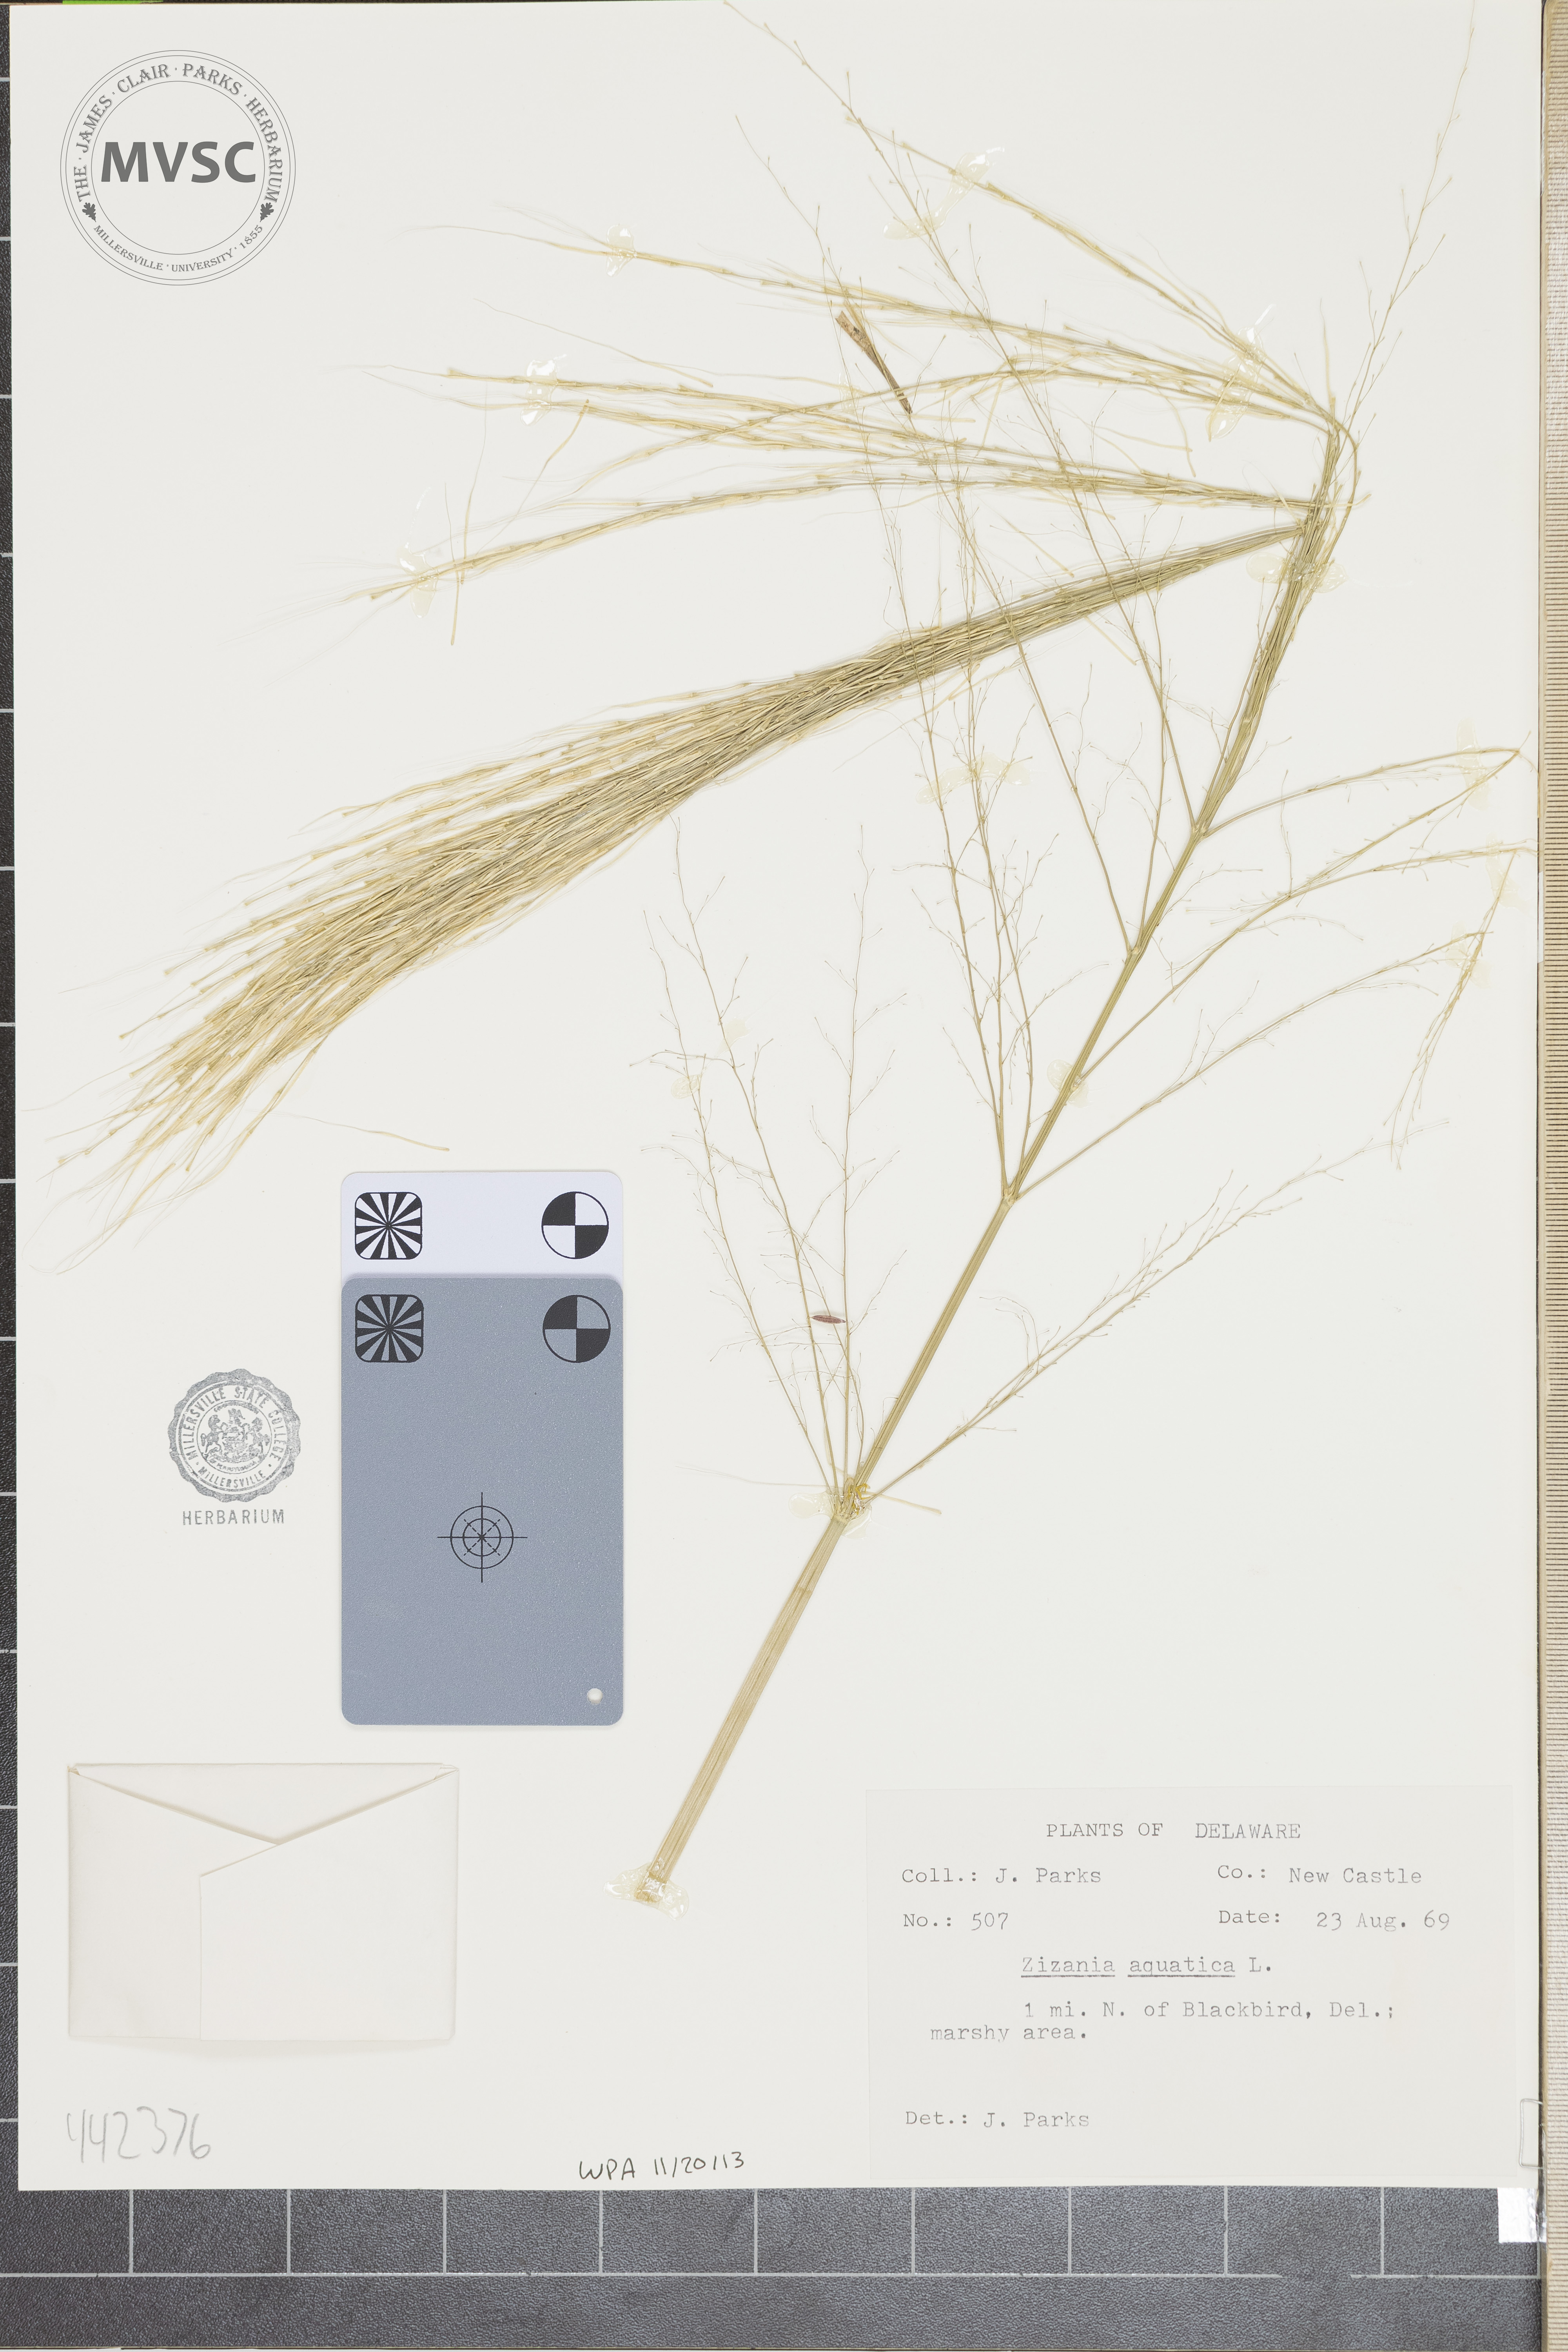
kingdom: Plantae
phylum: Tracheophyta
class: Liliopsida
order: Poales
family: Poaceae
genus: Zizania
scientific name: Zizania aquatica
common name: Annual wildrice
